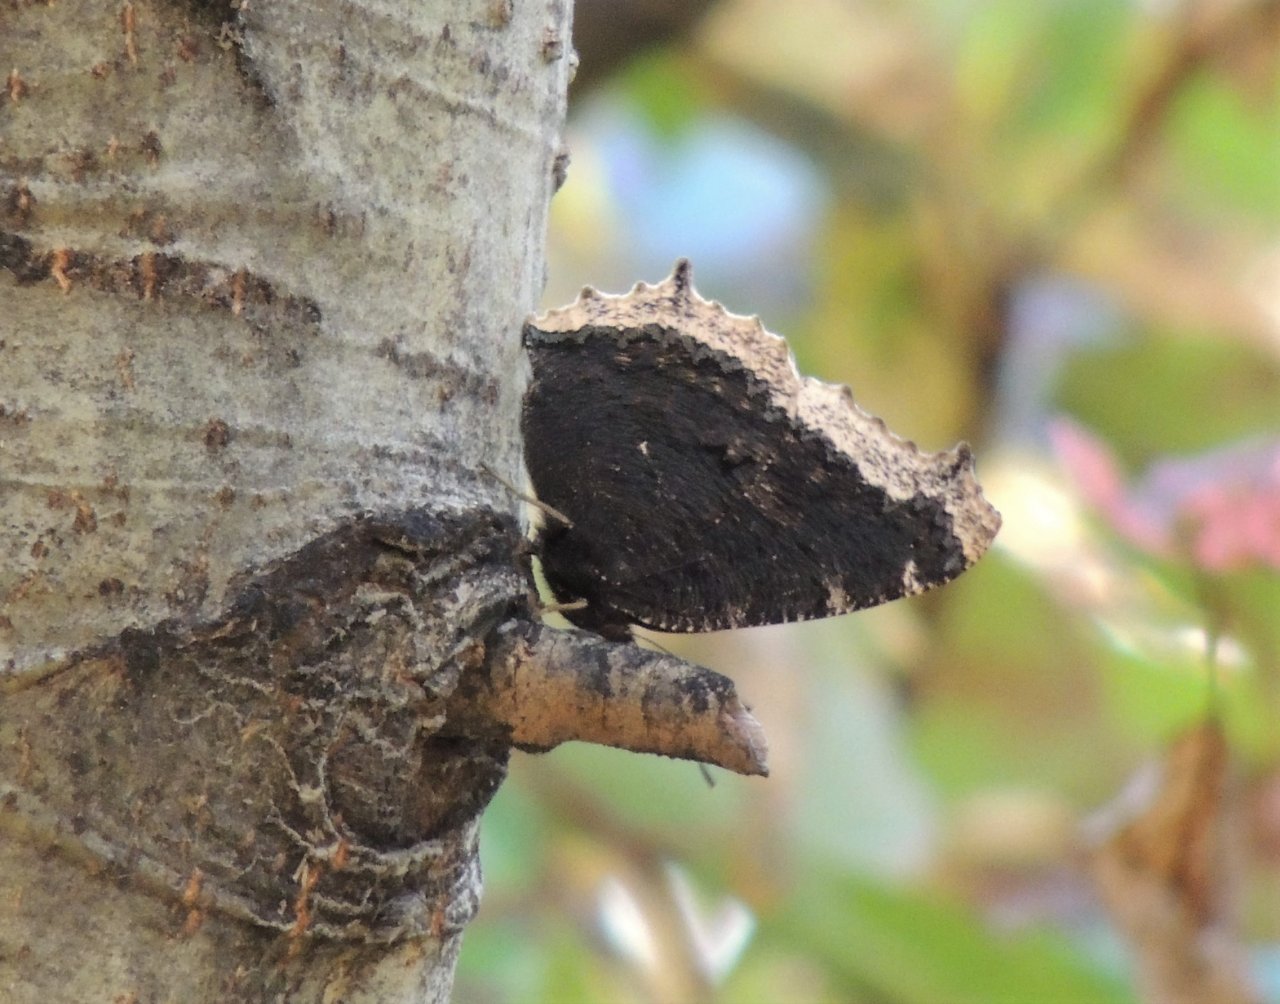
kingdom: Animalia
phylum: Arthropoda
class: Insecta
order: Lepidoptera
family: Nymphalidae
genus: Nymphalis
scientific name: Nymphalis antiopa
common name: Mourning Cloak
